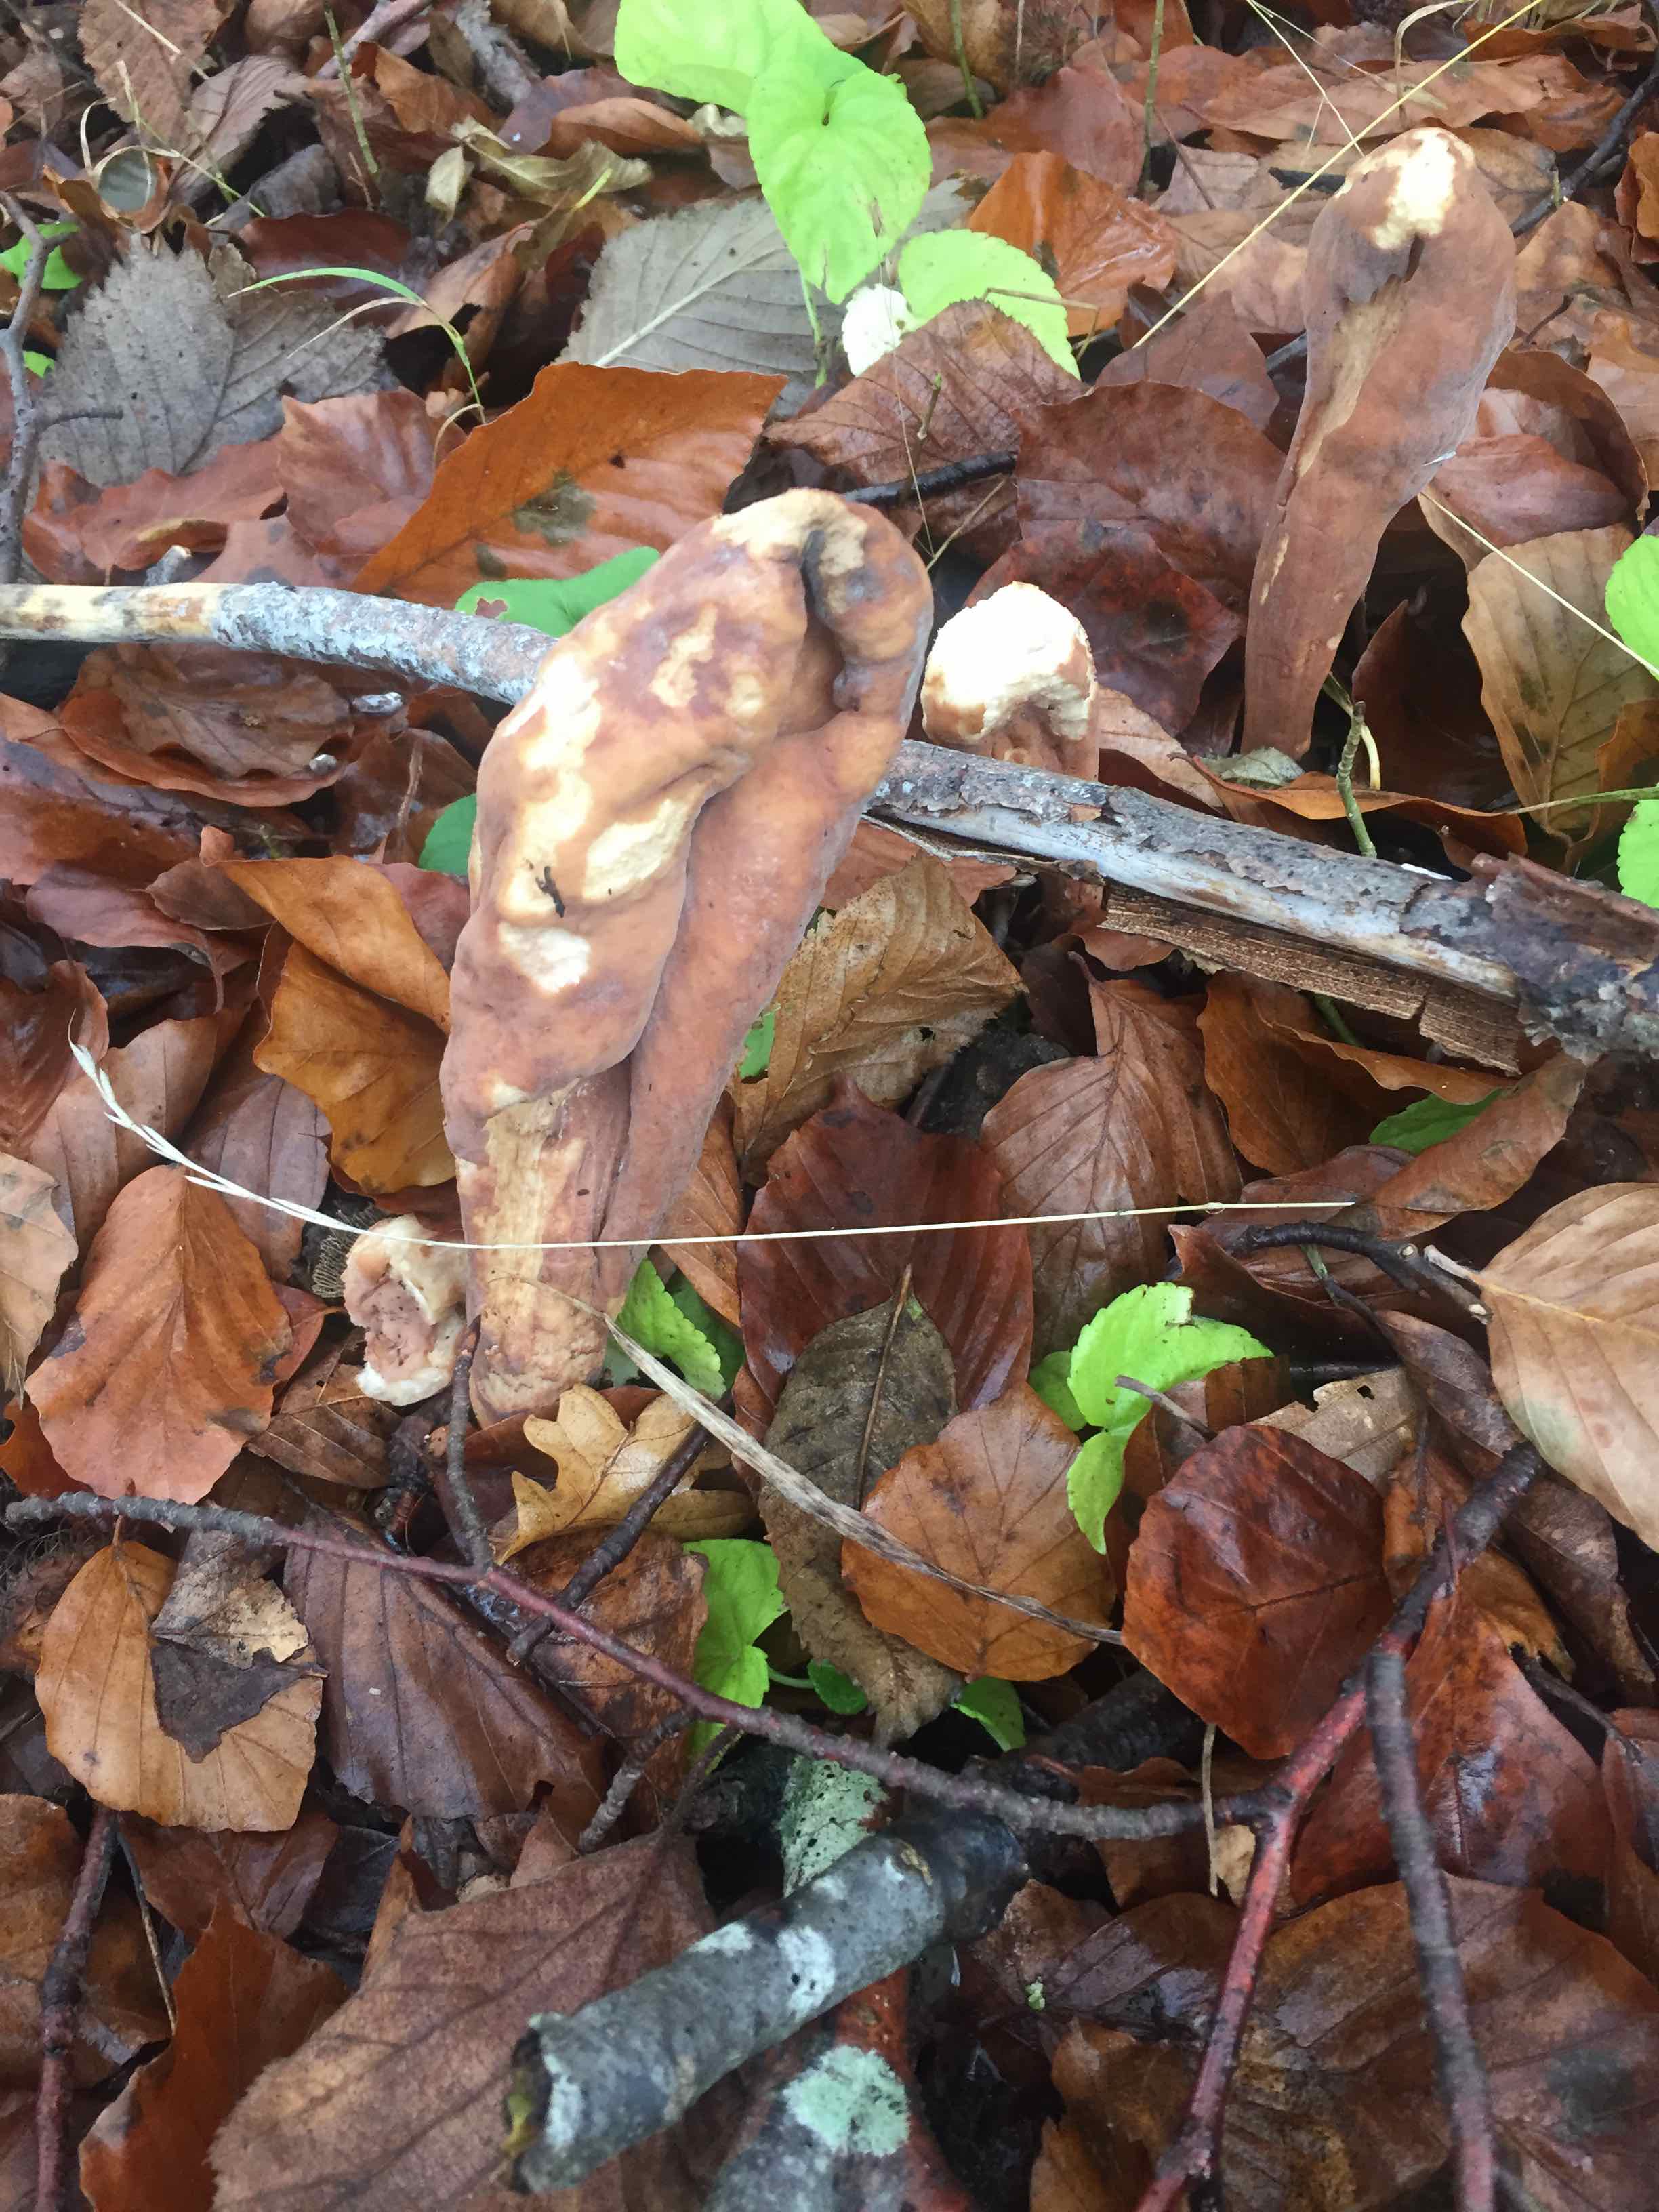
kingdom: Fungi
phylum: Basidiomycota
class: Agaricomycetes
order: Gomphales
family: Clavariadelphaceae
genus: Clavariadelphus
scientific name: Clavariadelphus pistillaris
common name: herkules-kæmpekølle
